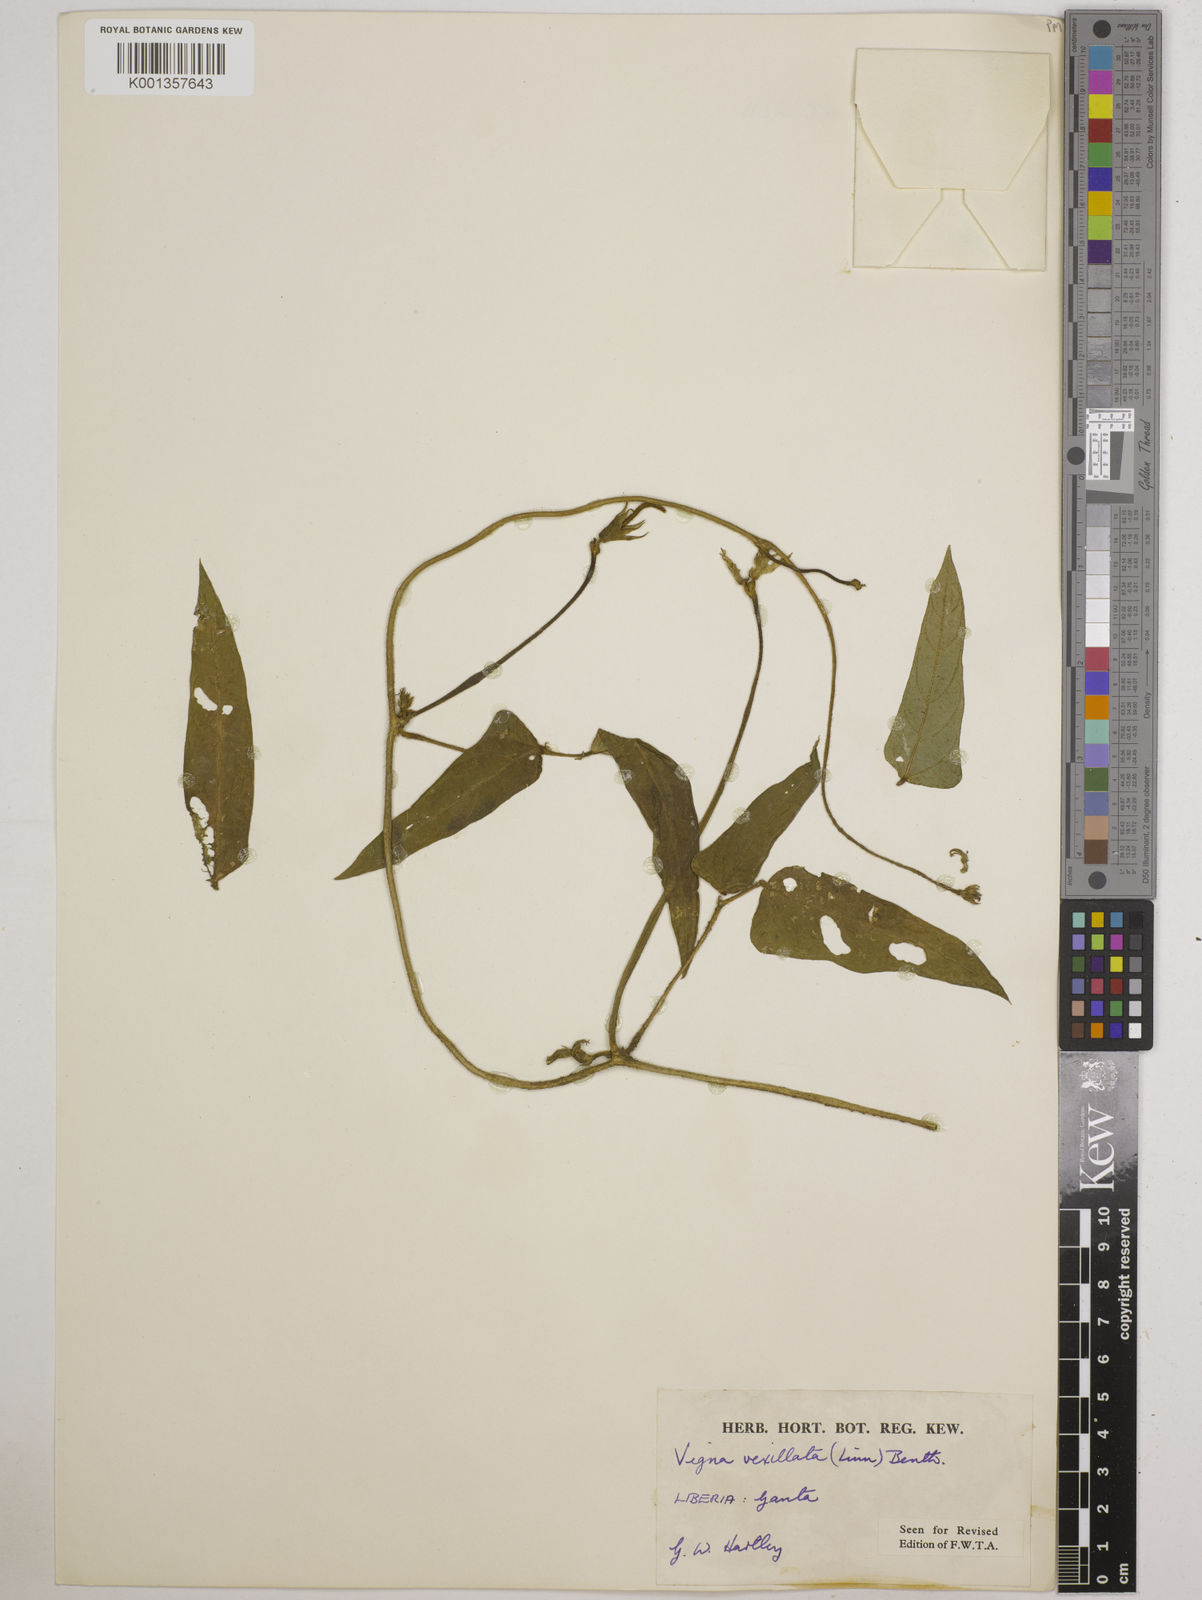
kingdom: Plantae
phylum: Tracheophyta
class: Magnoliopsida
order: Fabales
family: Fabaceae
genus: Vigna
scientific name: Vigna vexillata
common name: Zombi pea
